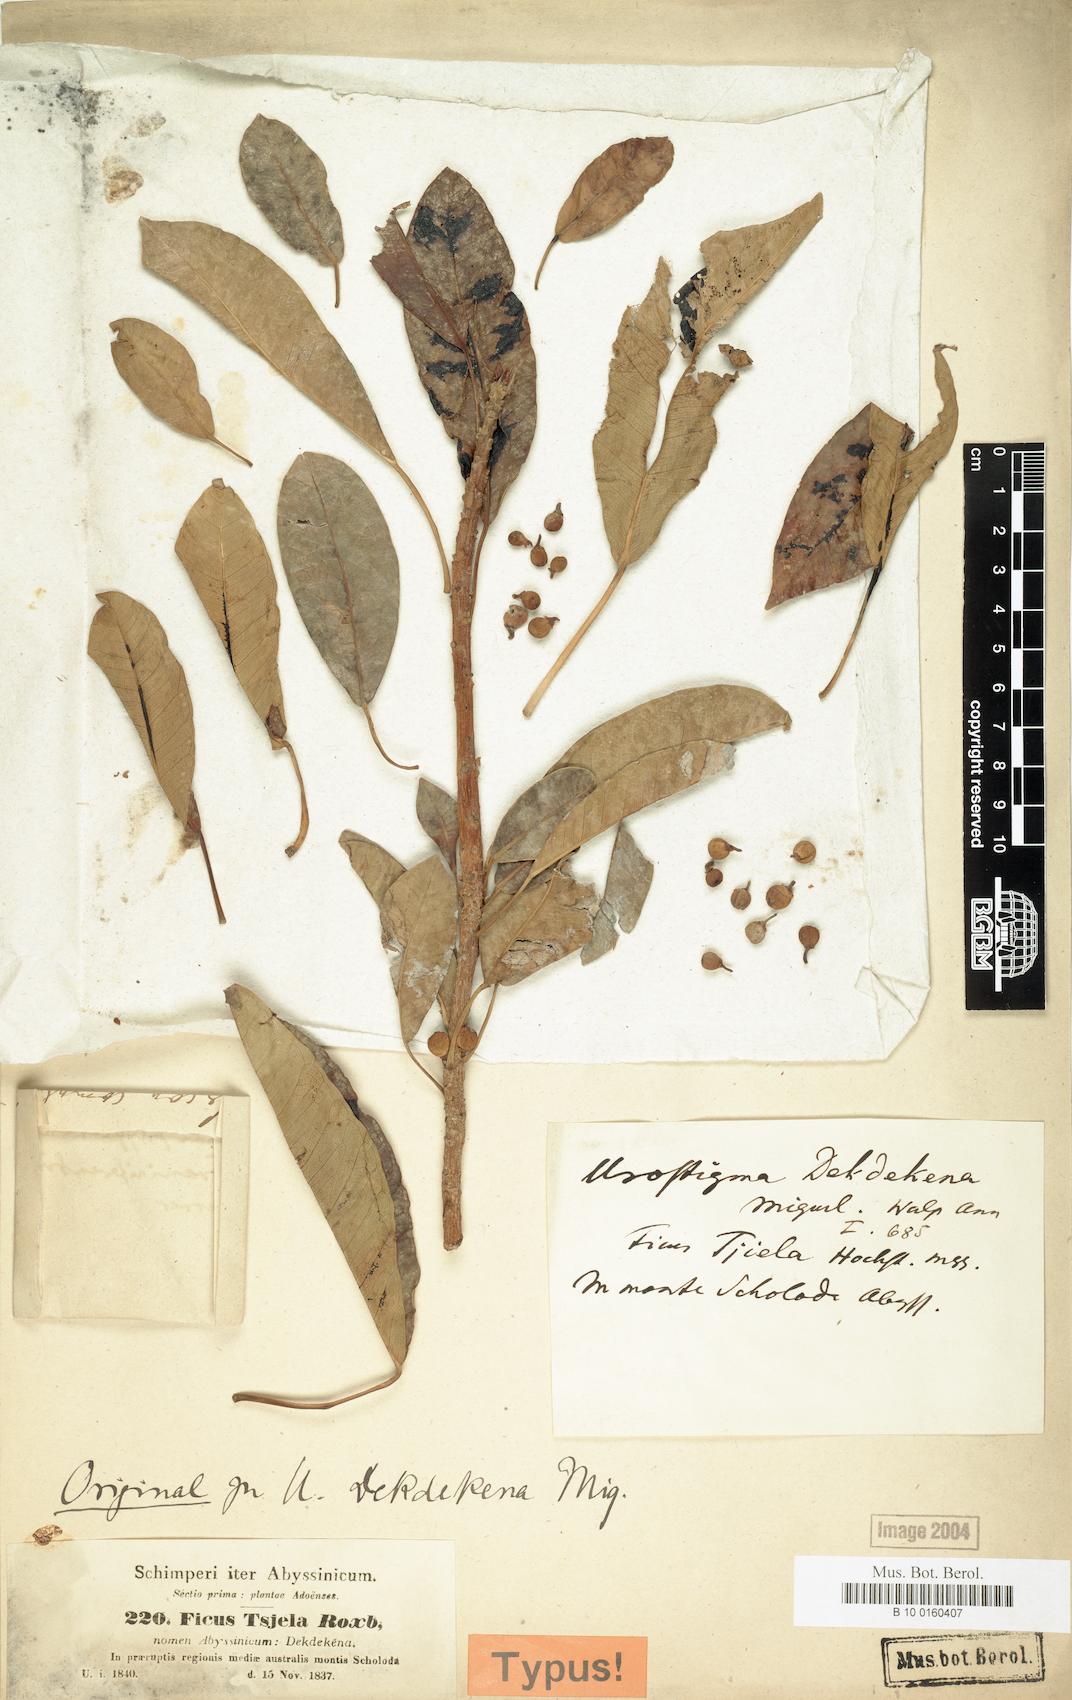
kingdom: Plantae
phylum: Tracheophyta
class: Magnoliopsida
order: Rosales
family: Moraceae
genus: Ficus
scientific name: Ficus thonningii
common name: Fig
